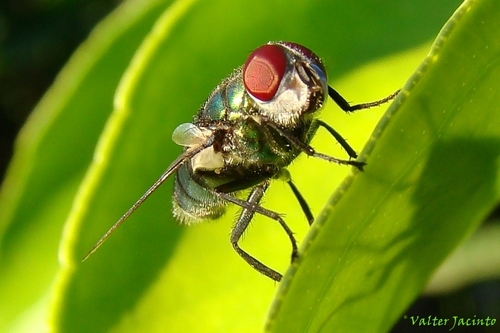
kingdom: Animalia
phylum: Arthropoda
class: Insecta
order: Diptera
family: Calliphoridae
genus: Chrysomya
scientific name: Chrysomya albiceps
